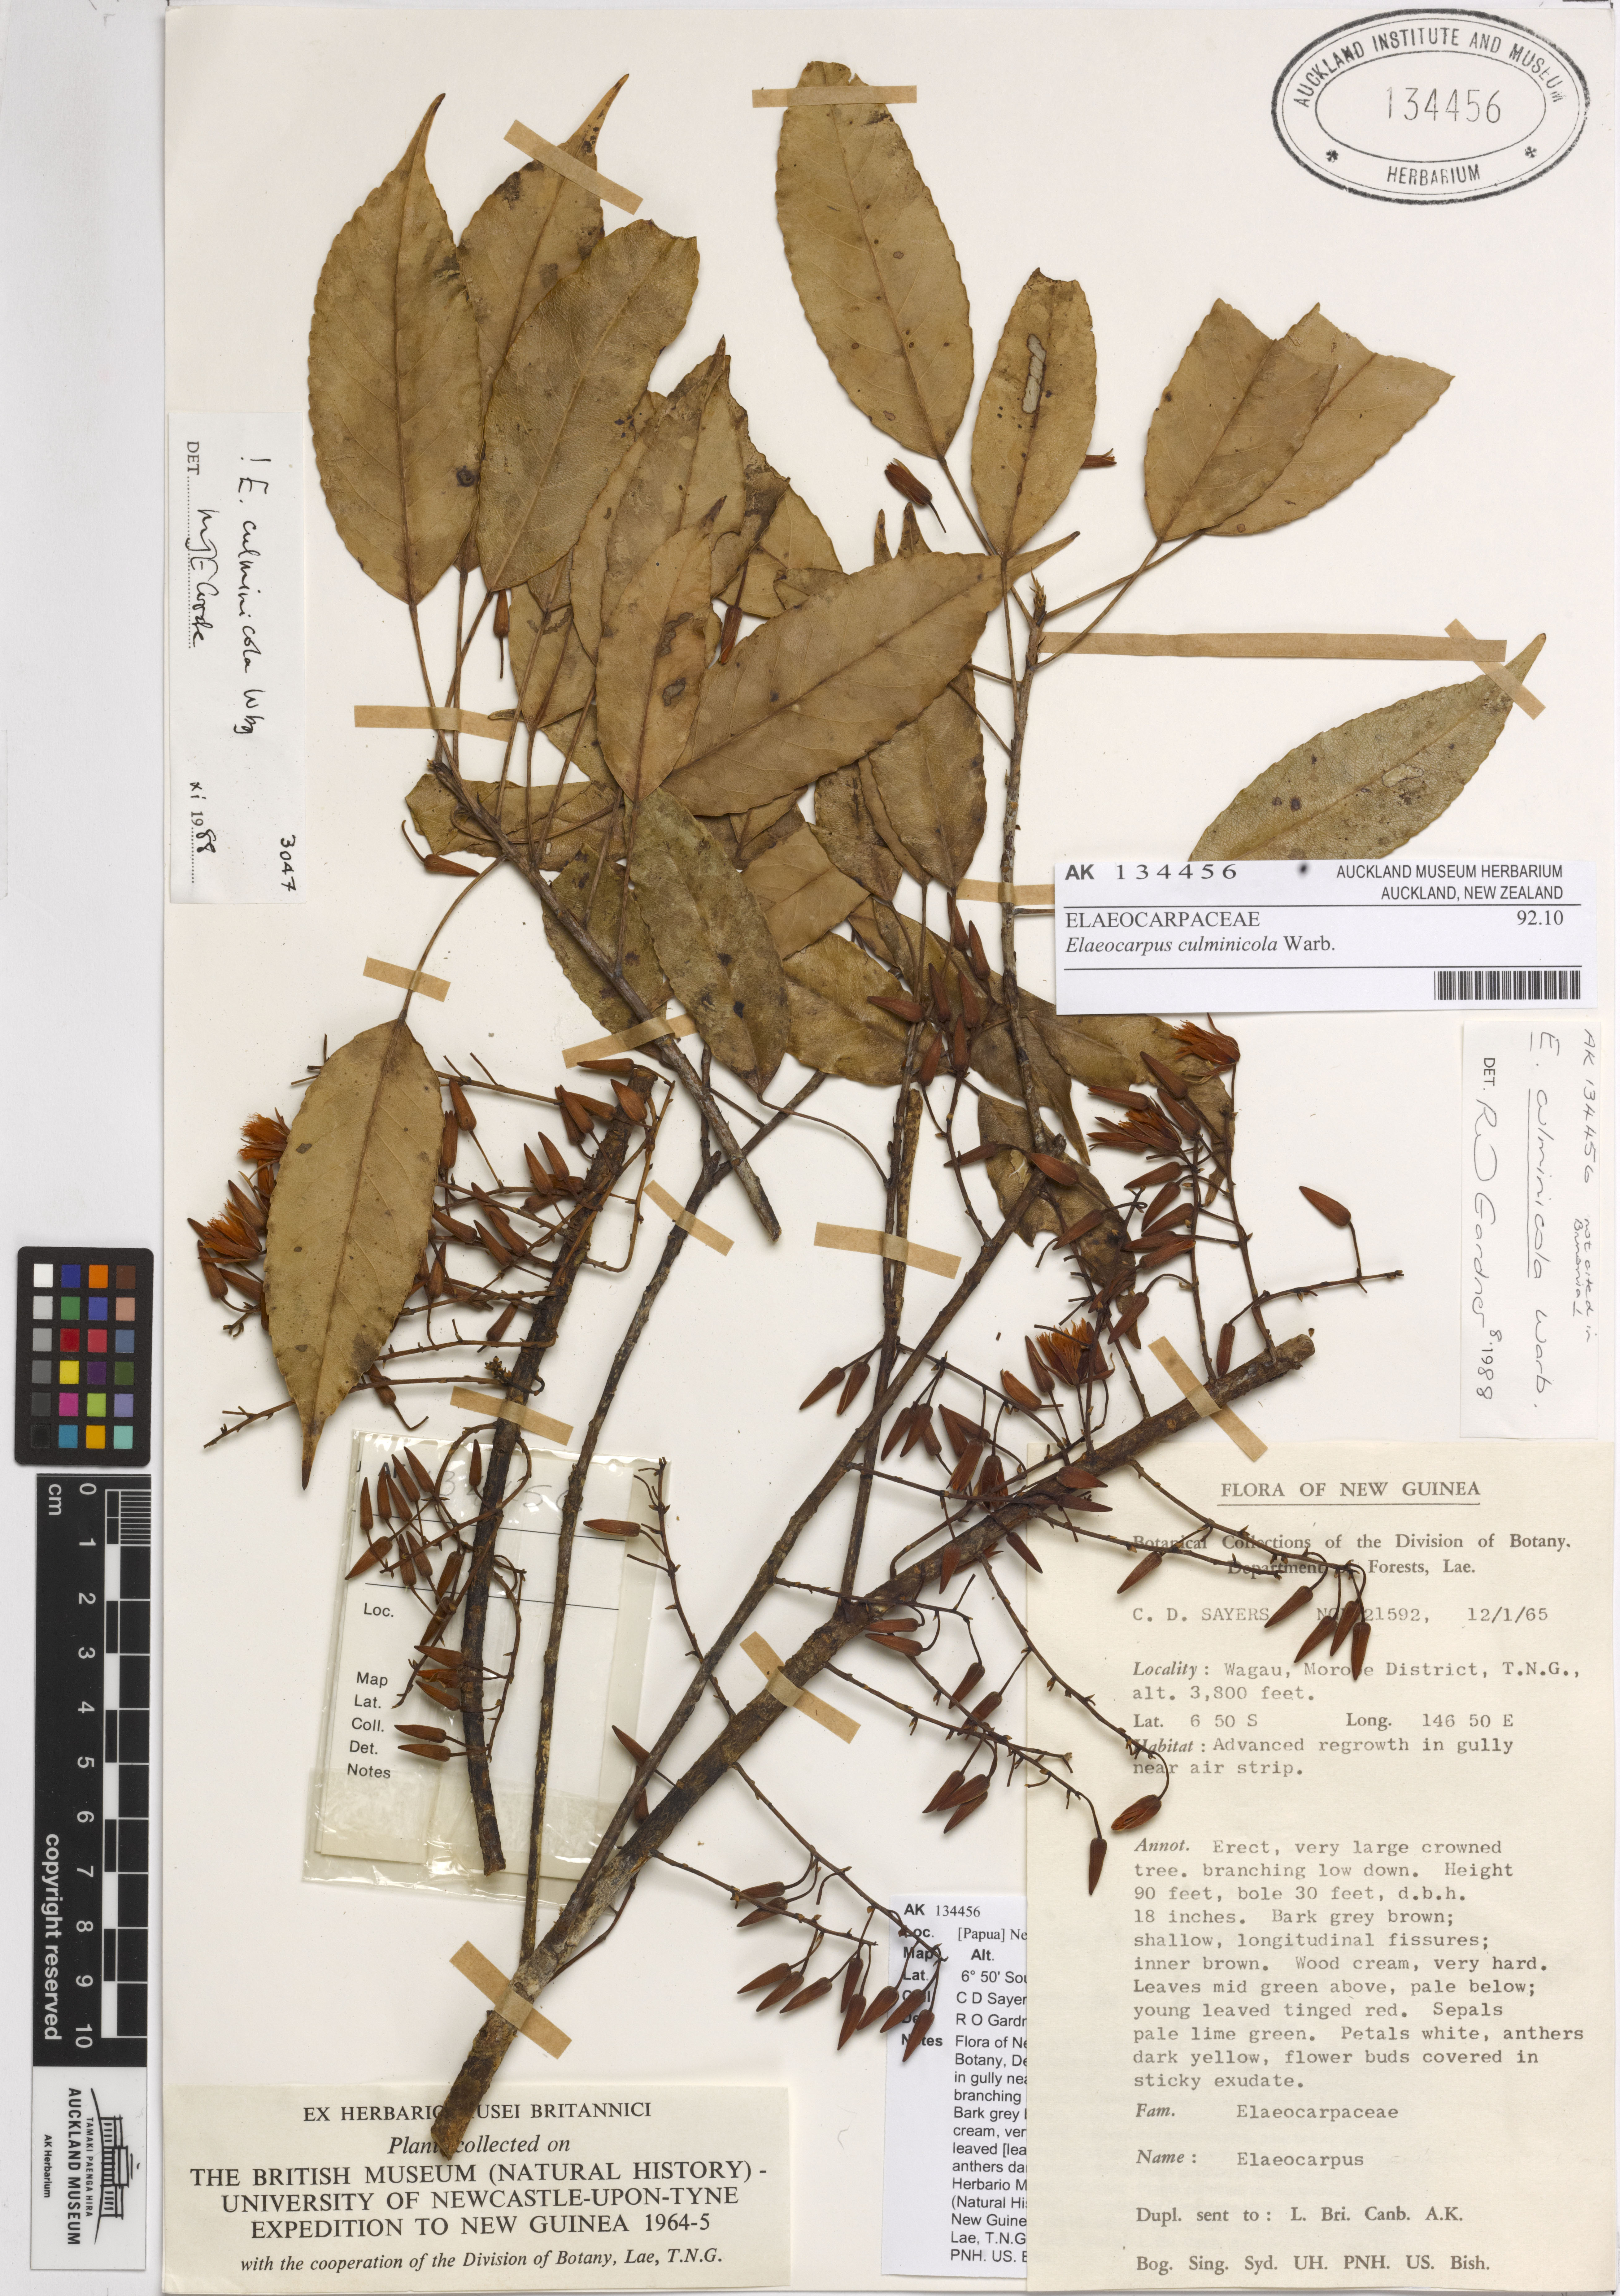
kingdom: Plantae
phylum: Tracheophyta
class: Magnoliopsida
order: Oxalidales
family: Elaeocarpaceae
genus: Elaeocarpus
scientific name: Elaeocarpus culminicola
